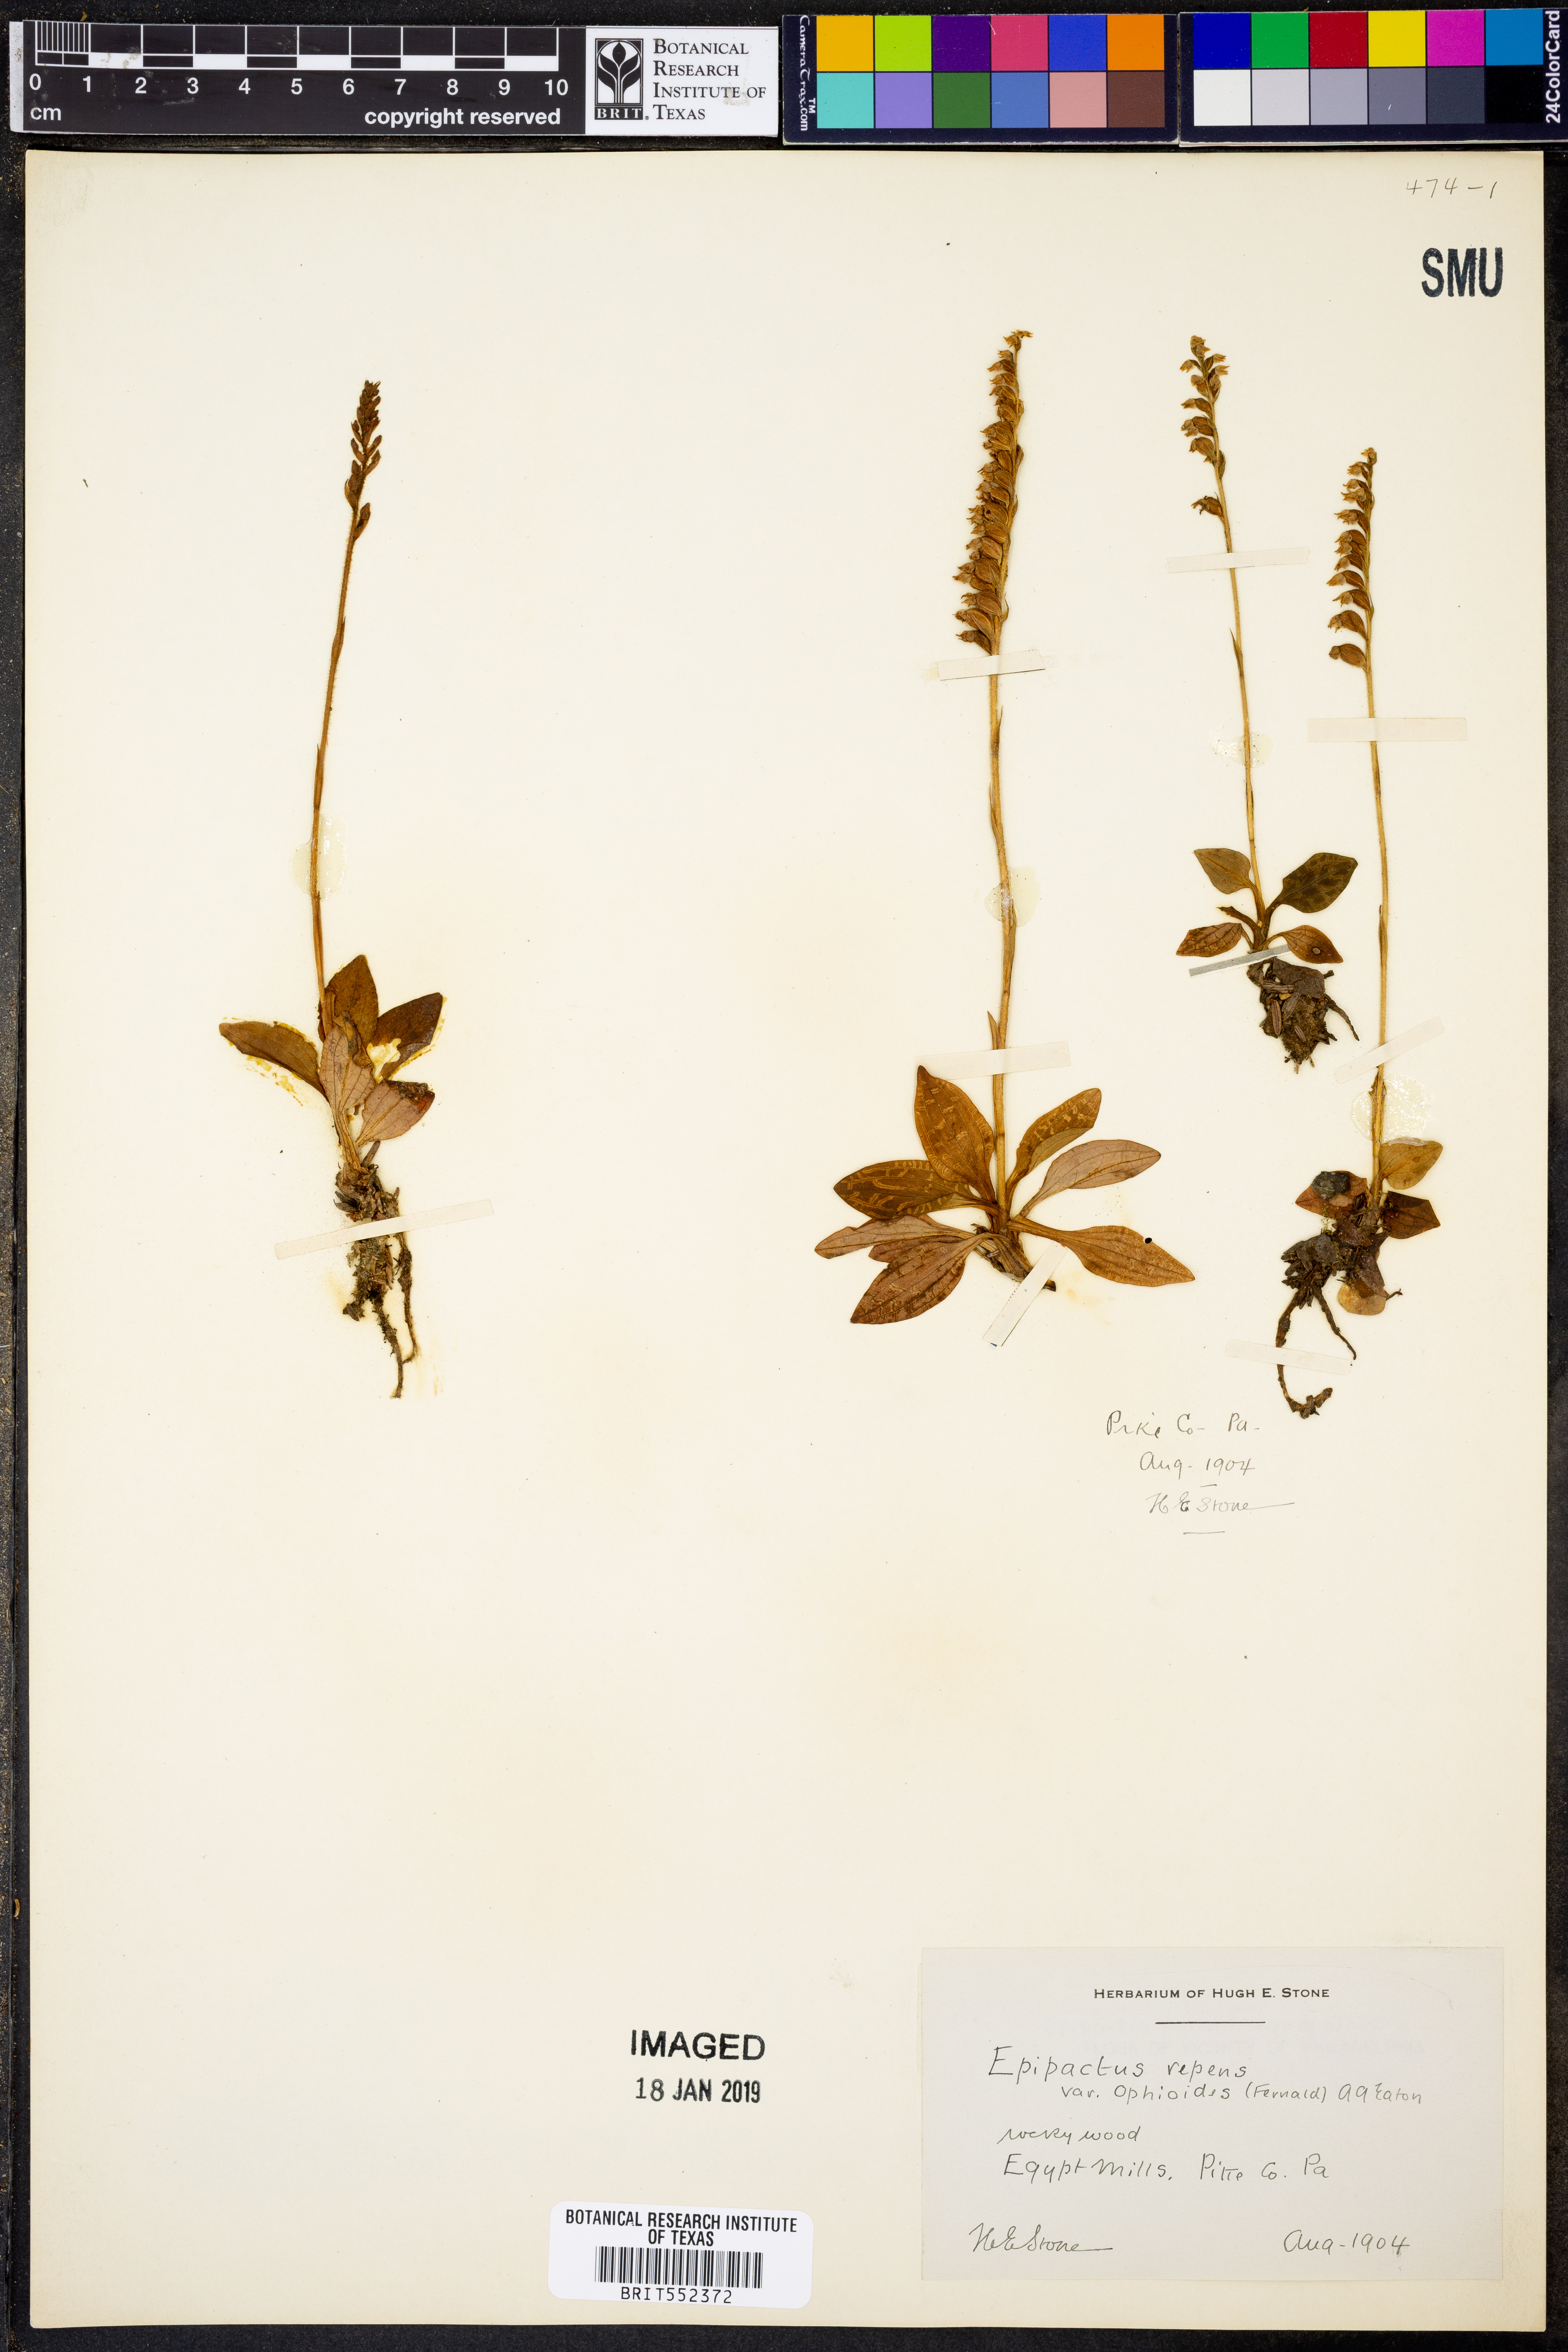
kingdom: Plantae
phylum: Tracheophyta
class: Liliopsida
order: Asparagales
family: Orchidaceae
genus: Goodyera
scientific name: Goodyera repens
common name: Creeping lady's-tresses
